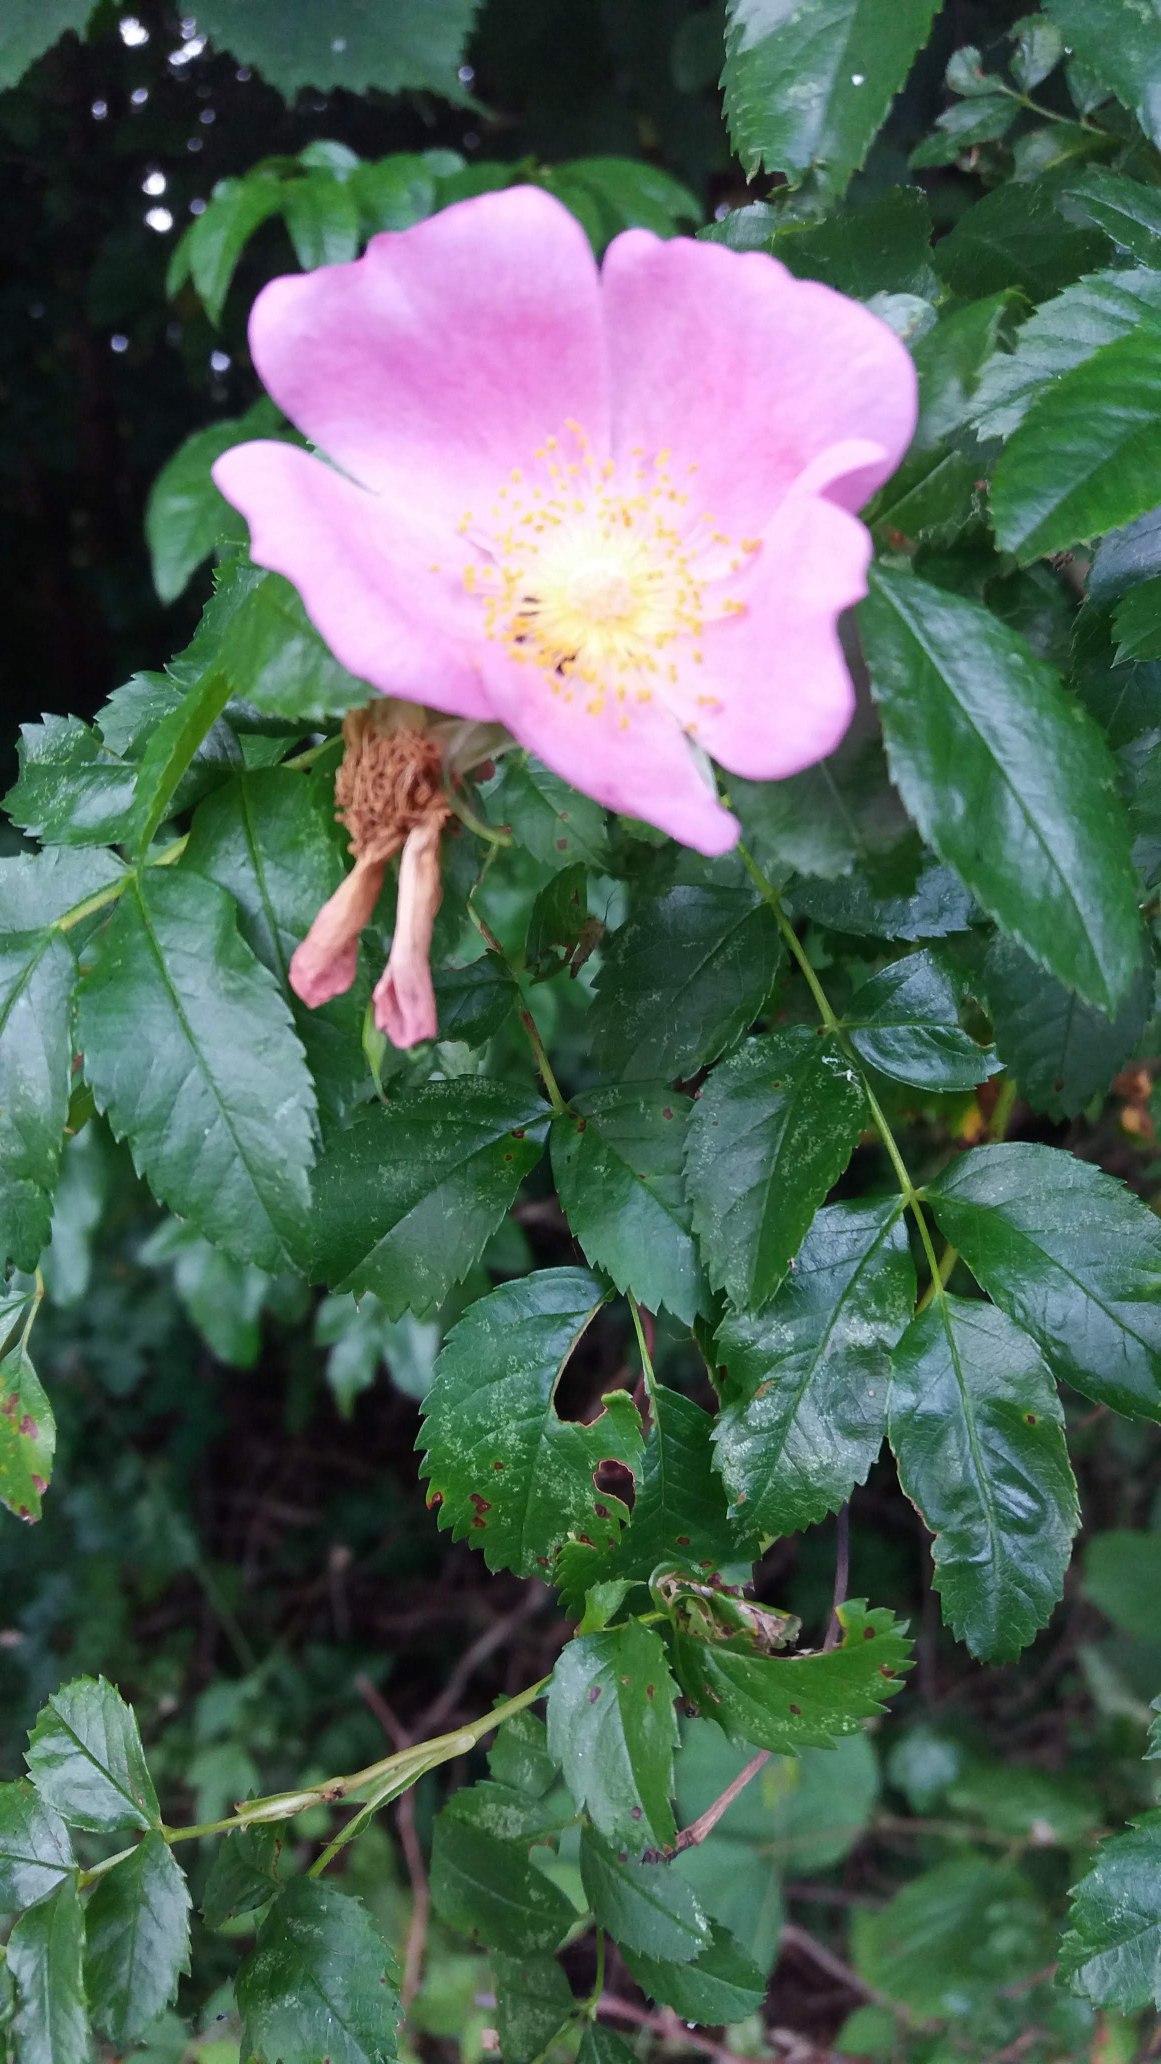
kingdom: Plantae
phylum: Tracheophyta
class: Magnoliopsida
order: Rosales
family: Rosaceae
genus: Rosa
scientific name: Rosa
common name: Roseslægten
